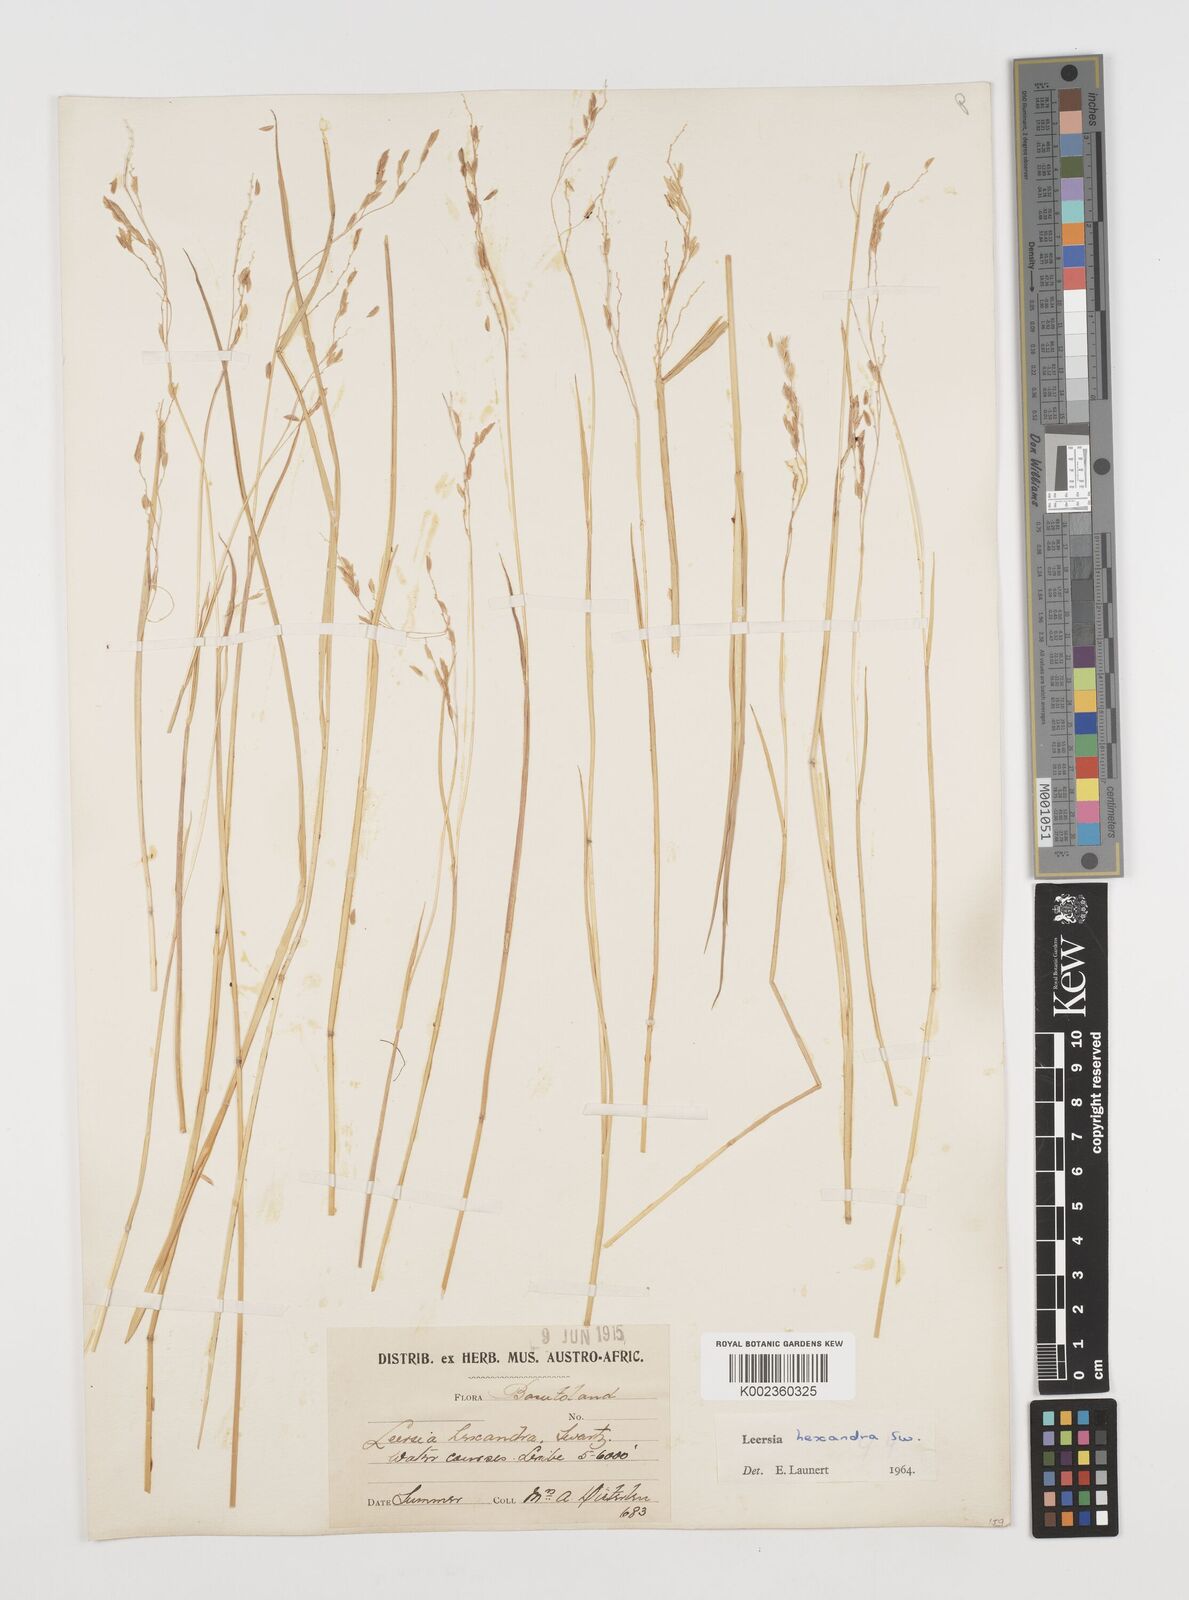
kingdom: Plantae
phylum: Tracheophyta
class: Liliopsida
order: Poales
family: Poaceae
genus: Leersia
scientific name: Leersia hexandra
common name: Southern cut grass
